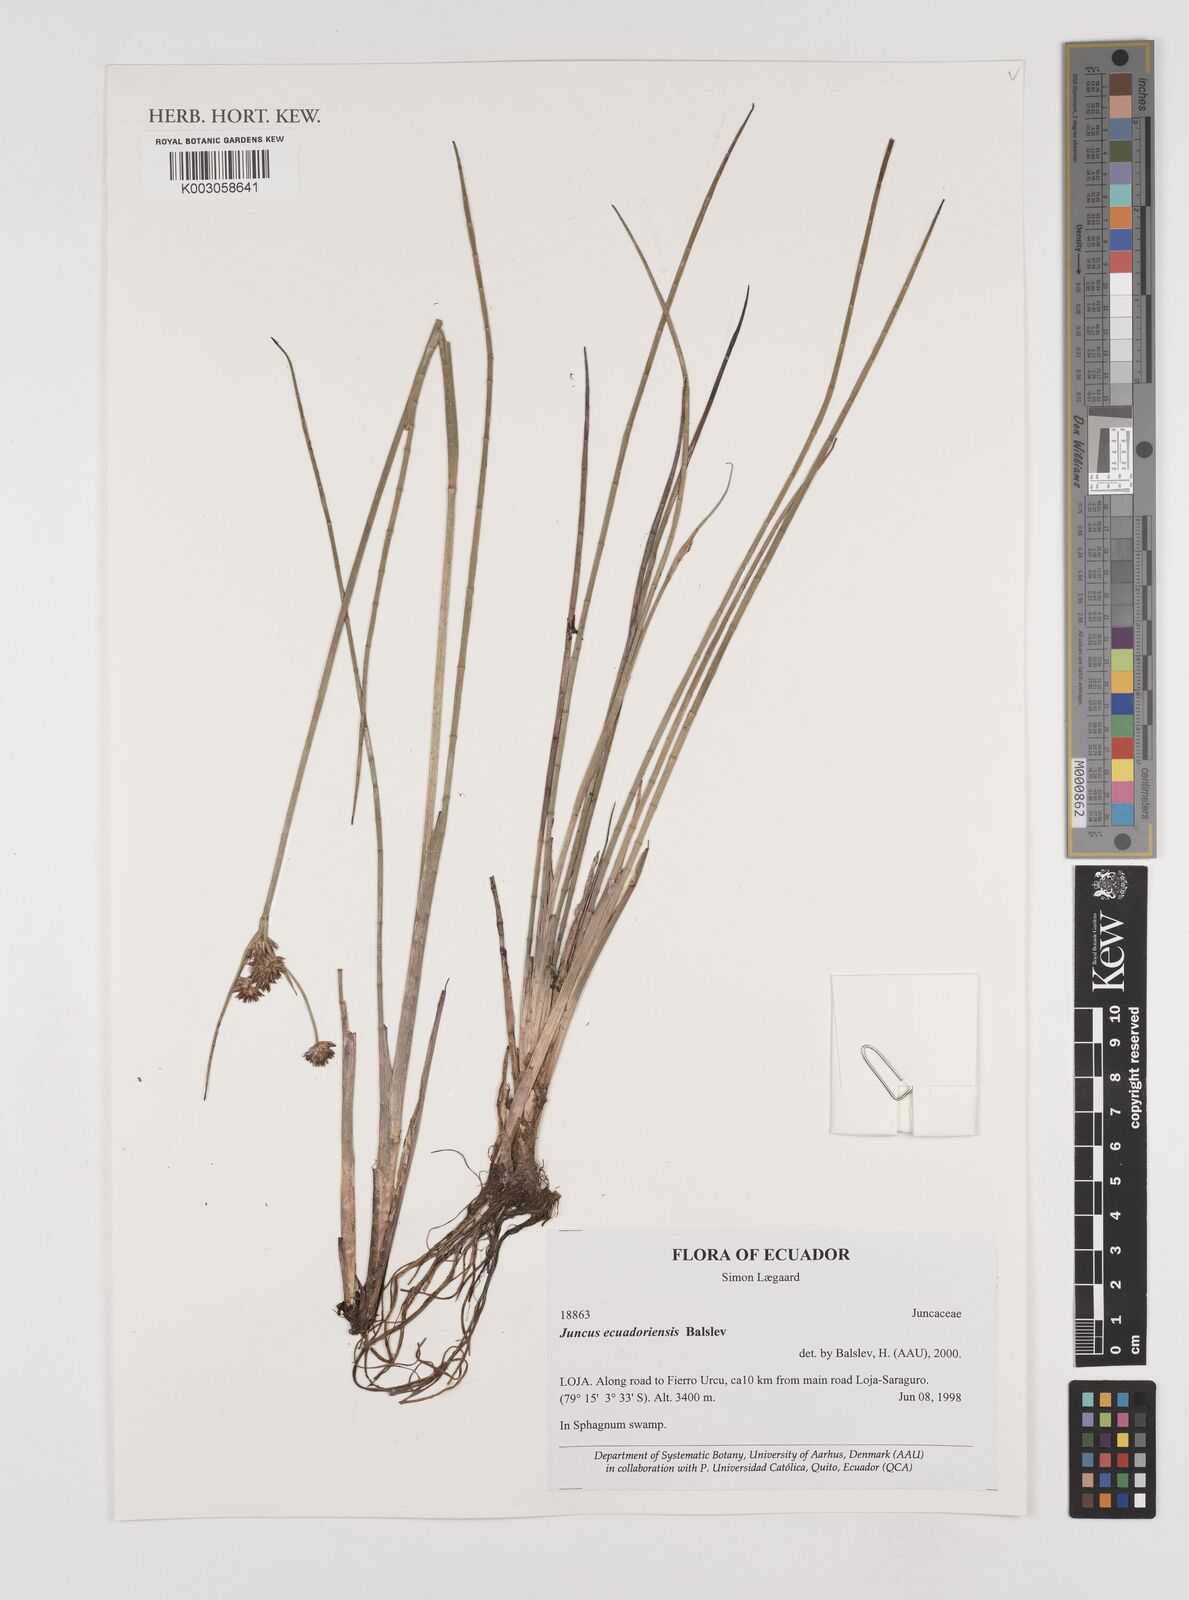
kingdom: Plantae
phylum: Tracheophyta
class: Liliopsida
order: Poales
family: Juncaceae
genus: Juncus
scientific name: Juncus ecuadoriensis
